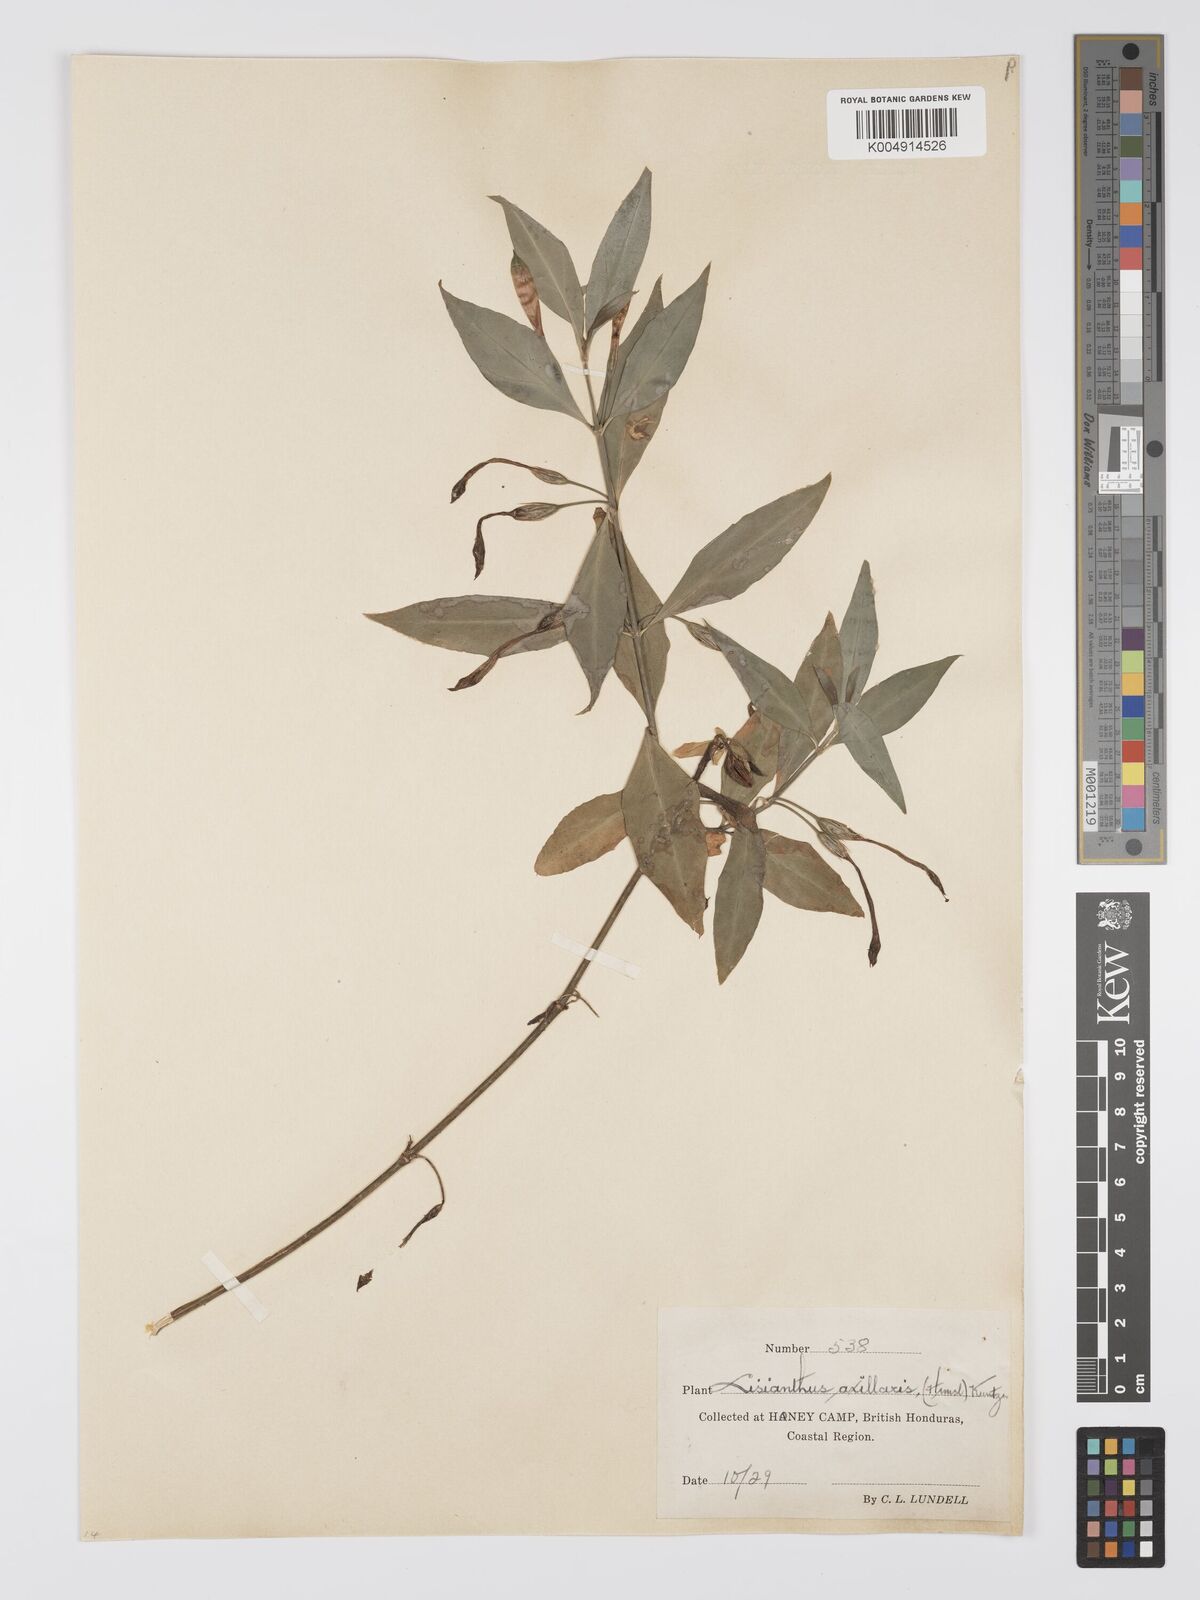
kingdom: Plantae
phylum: Tracheophyta
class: Magnoliopsida
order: Gentianales
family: Gentianaceae
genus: Lisianthius
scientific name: Lisianthius
